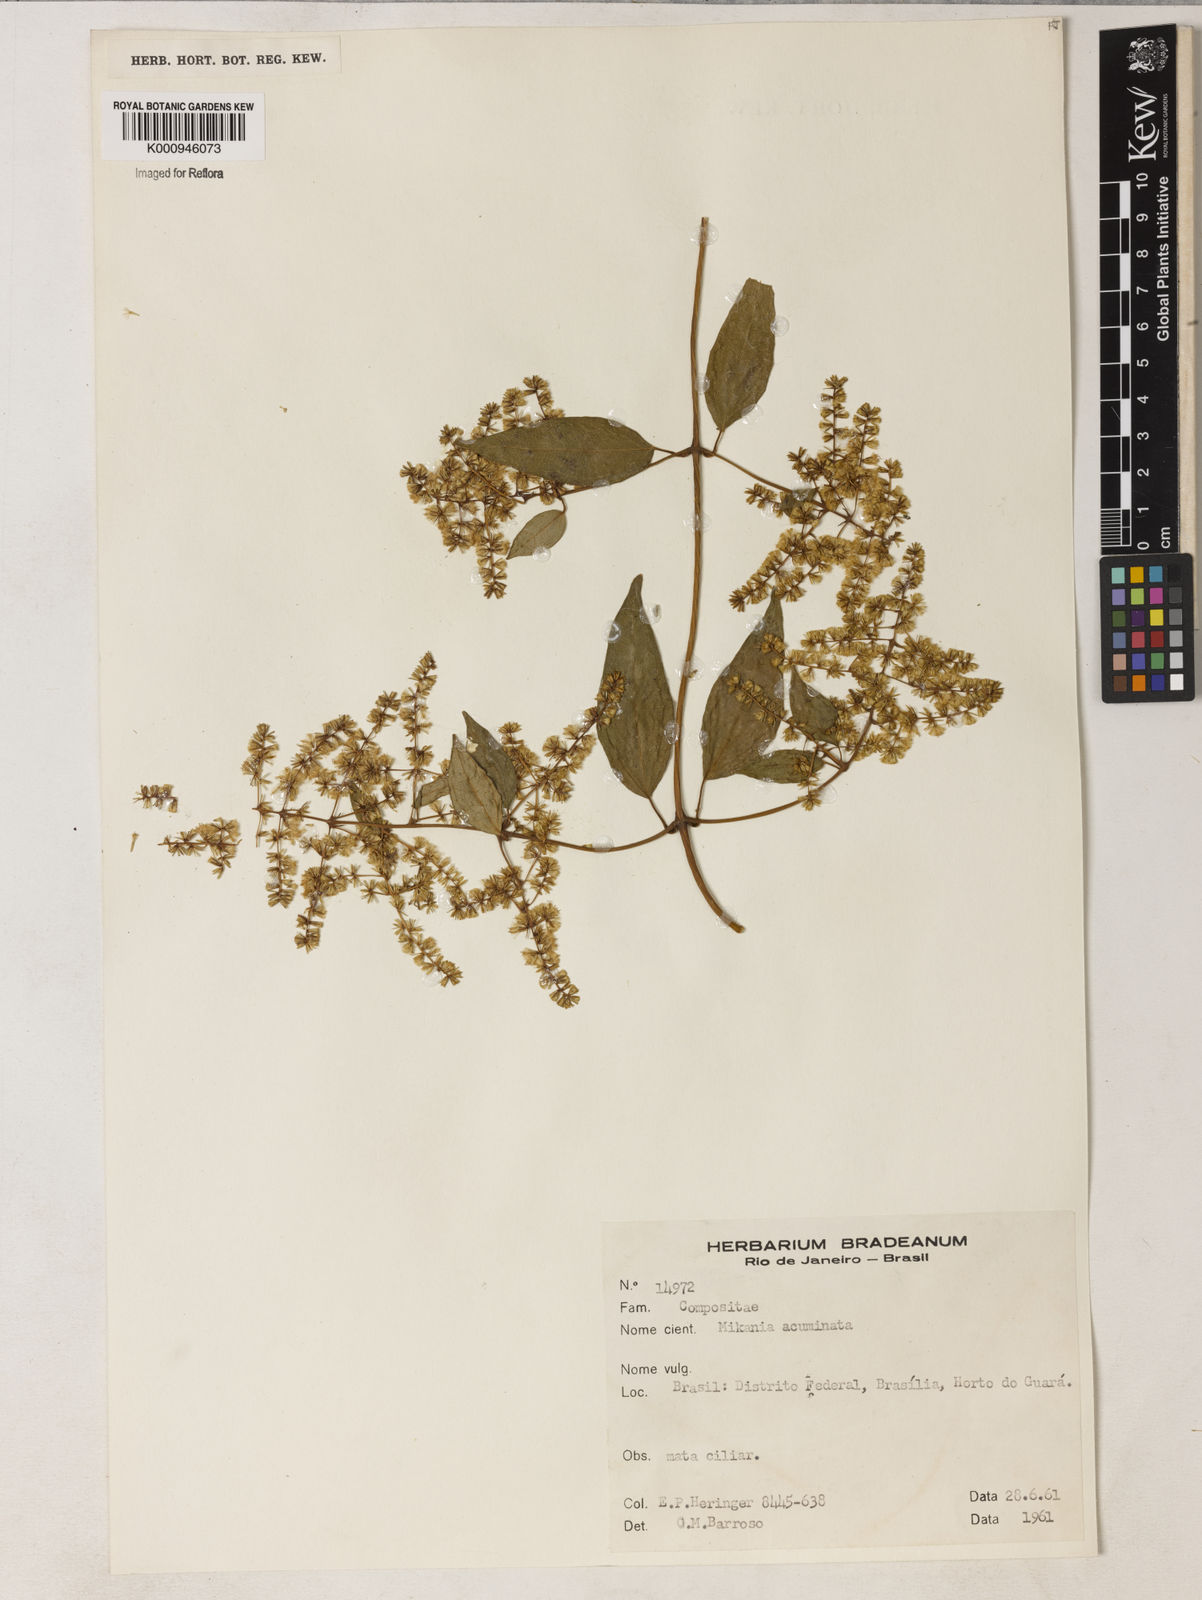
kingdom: Plantae
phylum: Tracheophyta
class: Magnoliopsida
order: Asterales
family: Asteraceae
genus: Mikania
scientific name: Mikania acuminata
